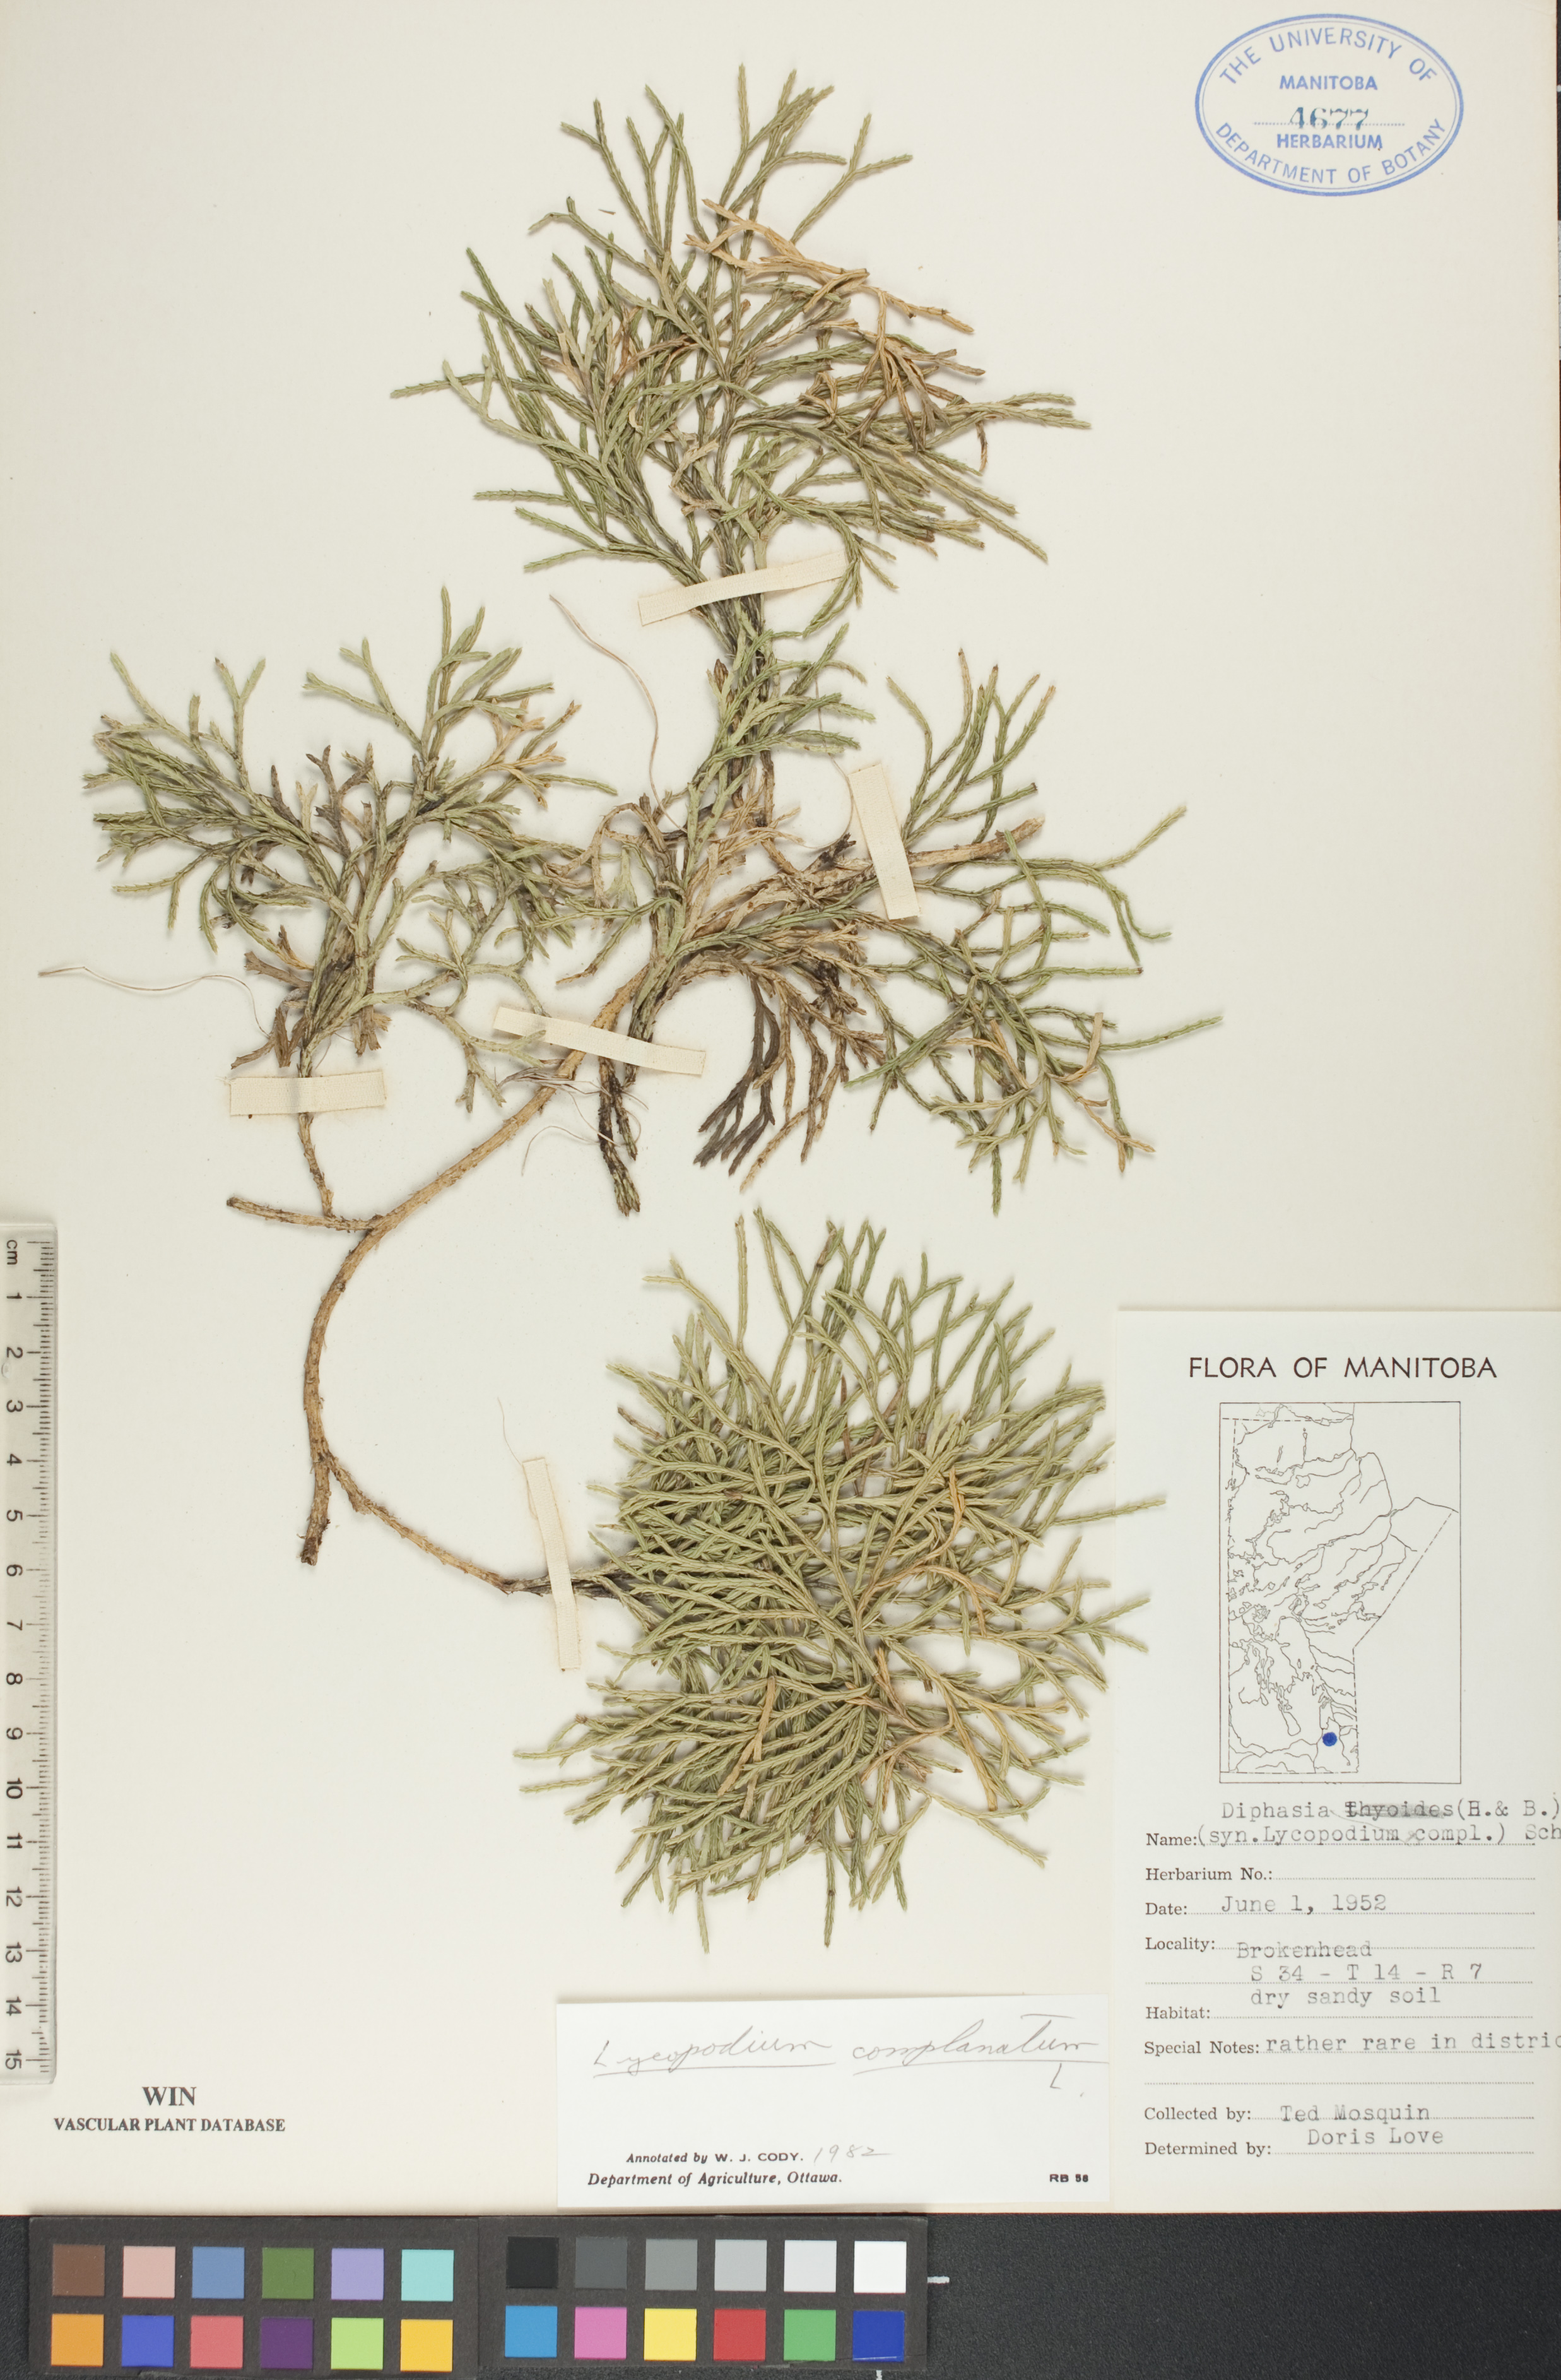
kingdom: Plantae
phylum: Tracheophyta
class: Lycopodiopsida
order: Lycopodiales
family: Lycopodiaceae
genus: Diphasiastrum
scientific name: Diphasiastrum
